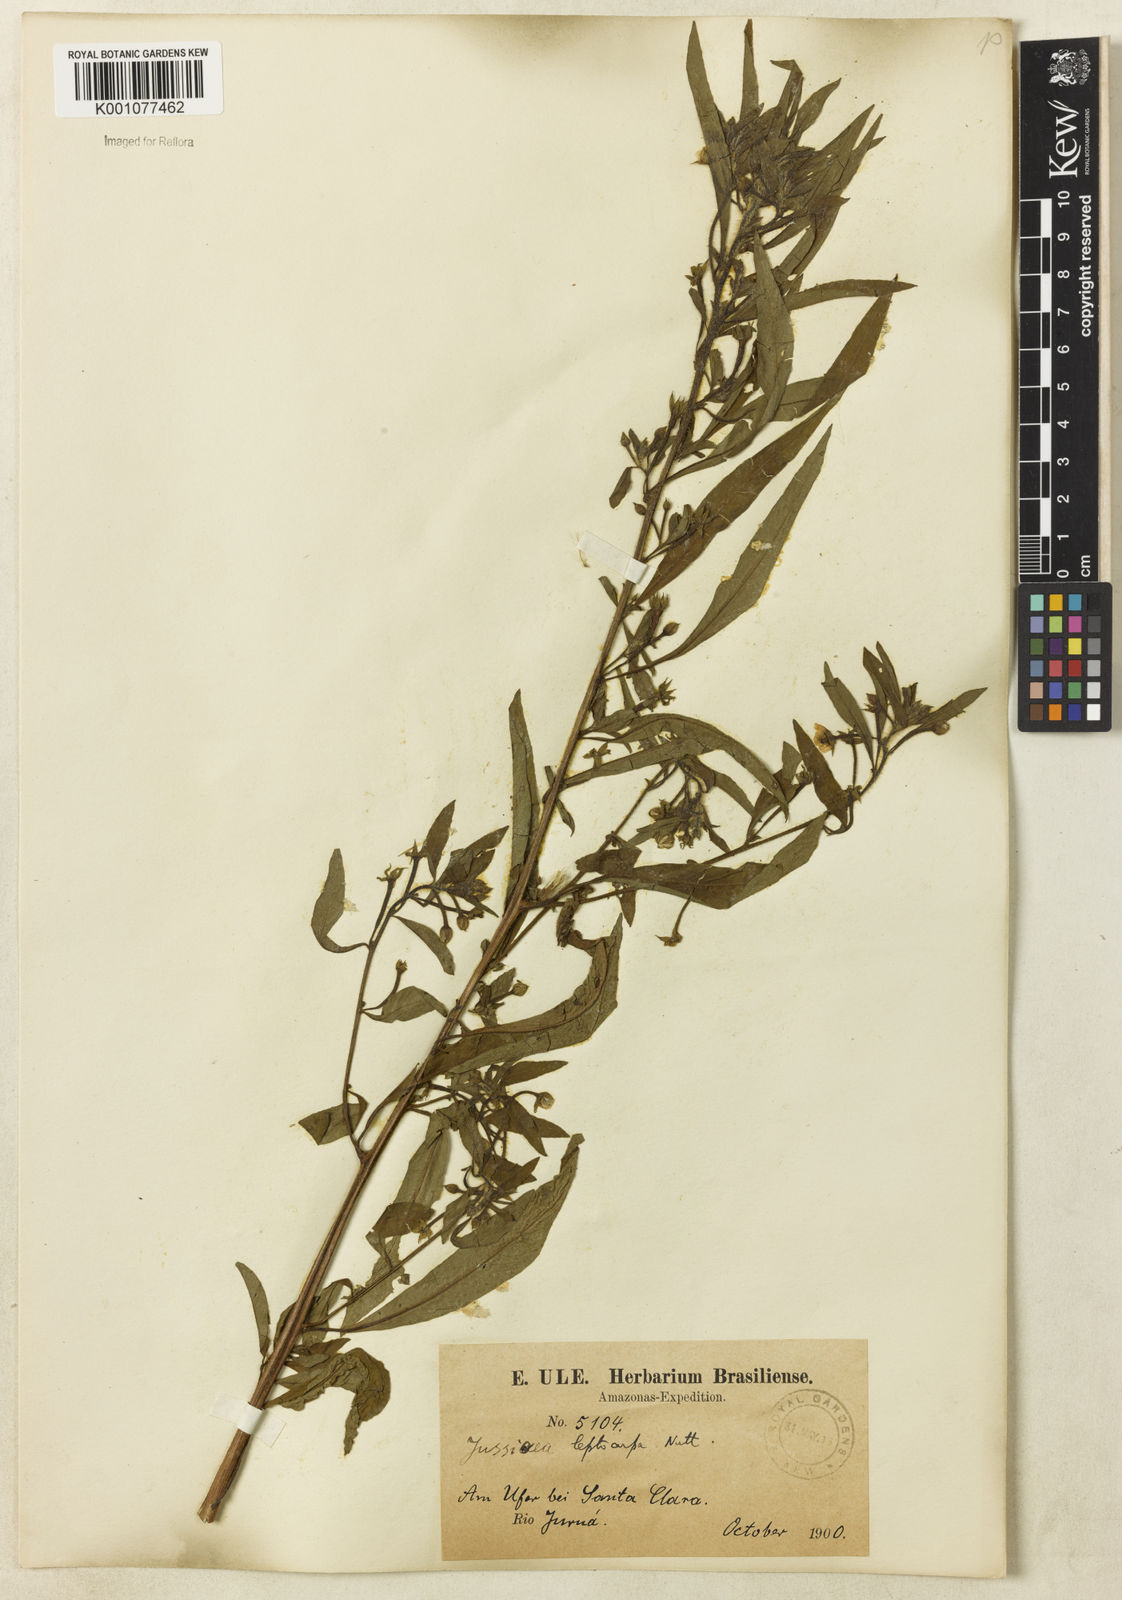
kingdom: Plantae
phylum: Tracheophyta
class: Magnoliopsida
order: Myrtales
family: Onagraceae
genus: Ludwigia
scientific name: Ludwigia leptocarpa
